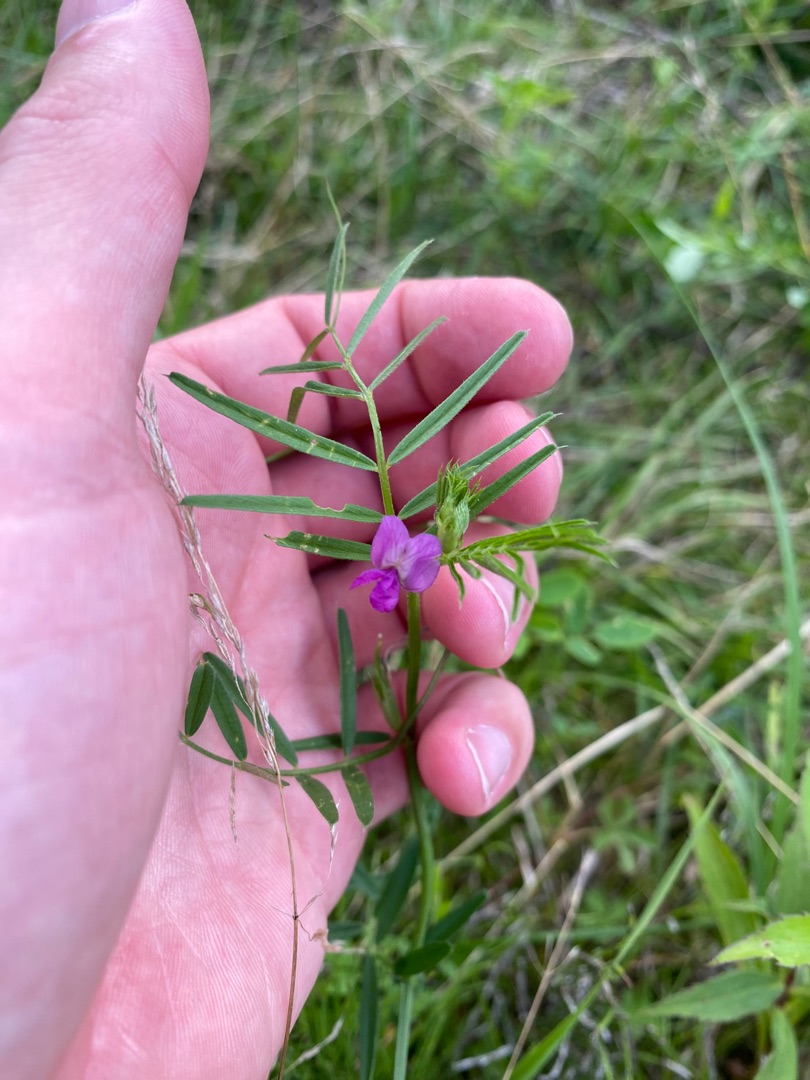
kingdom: Plantae
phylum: Tracheophyta
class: Magnoliopsida
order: Fabales
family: Fabaceae
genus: Vicia
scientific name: Vicia sativa
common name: Smalbladet vikke
